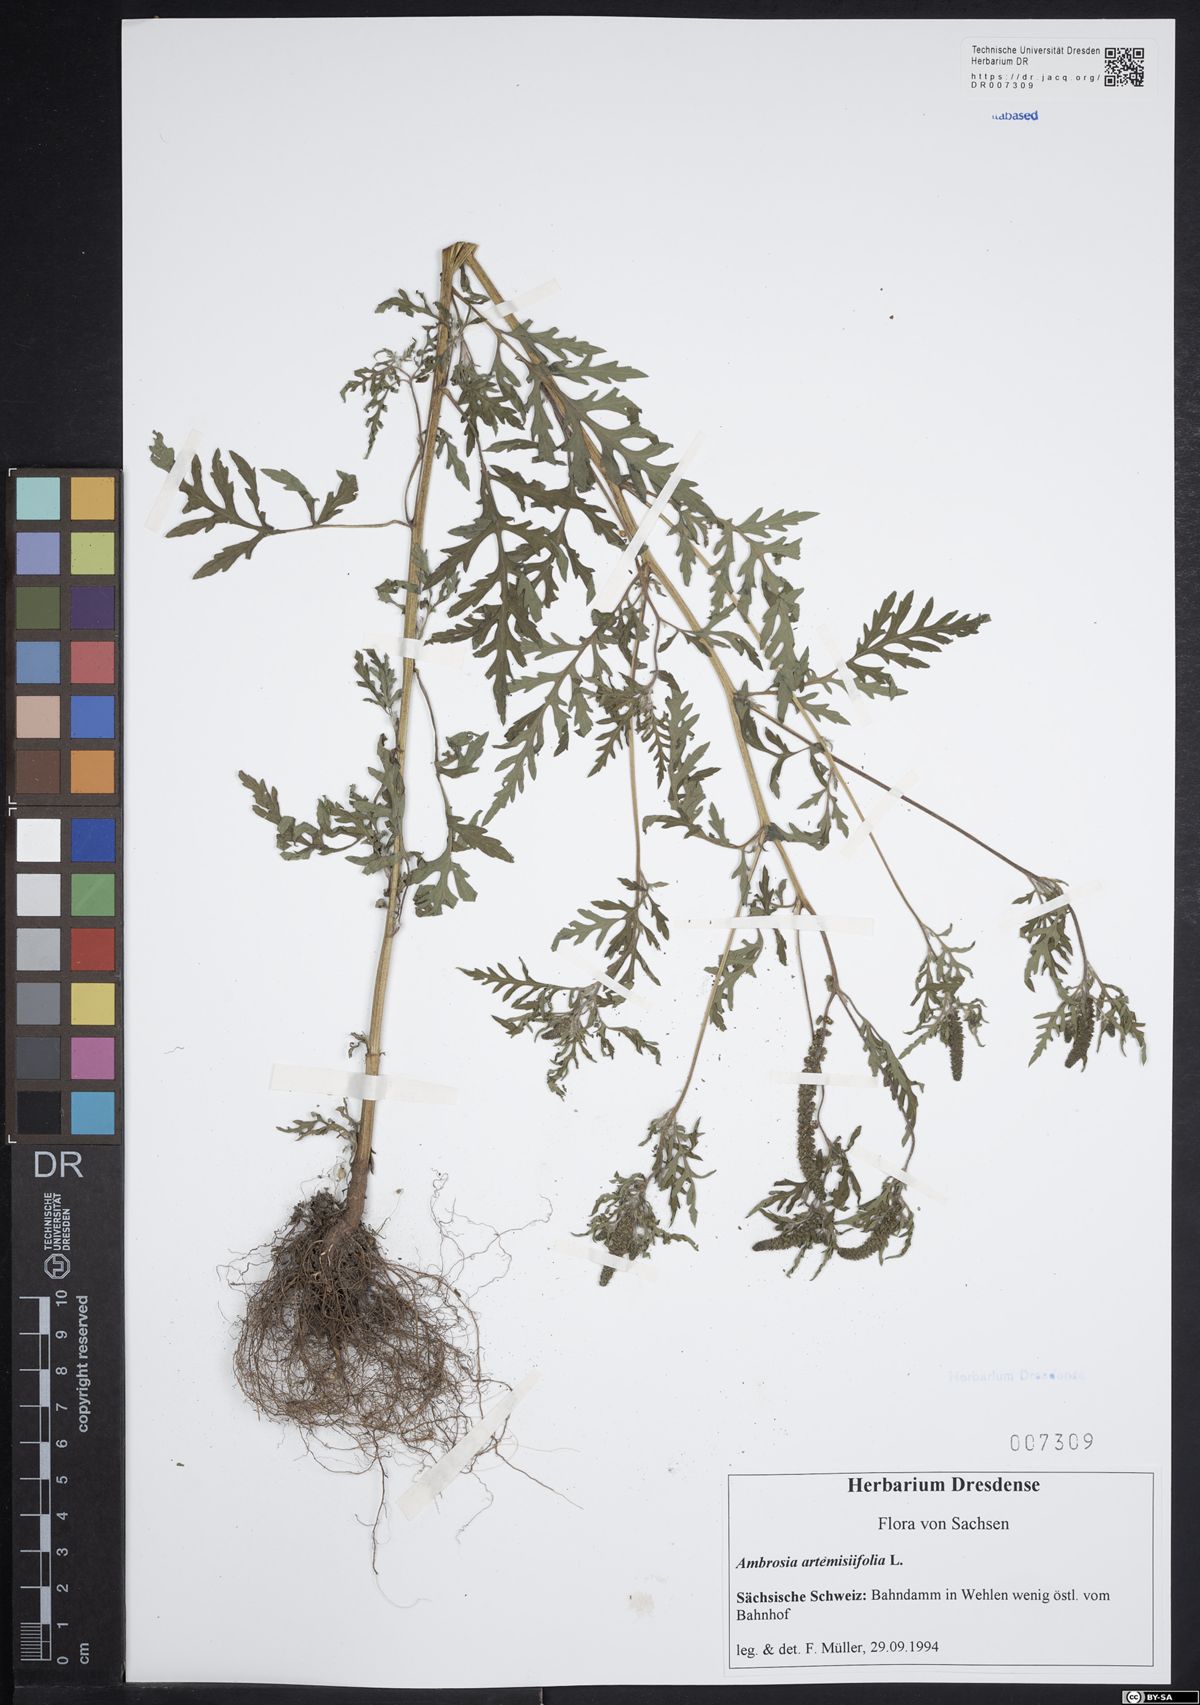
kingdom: Plantae
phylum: Tracheophyta
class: Magnoliopsida
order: Asterales
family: Asteraceae
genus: Ambrosia
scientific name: Ambrosia artemisiifolia
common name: Annual ragweed
